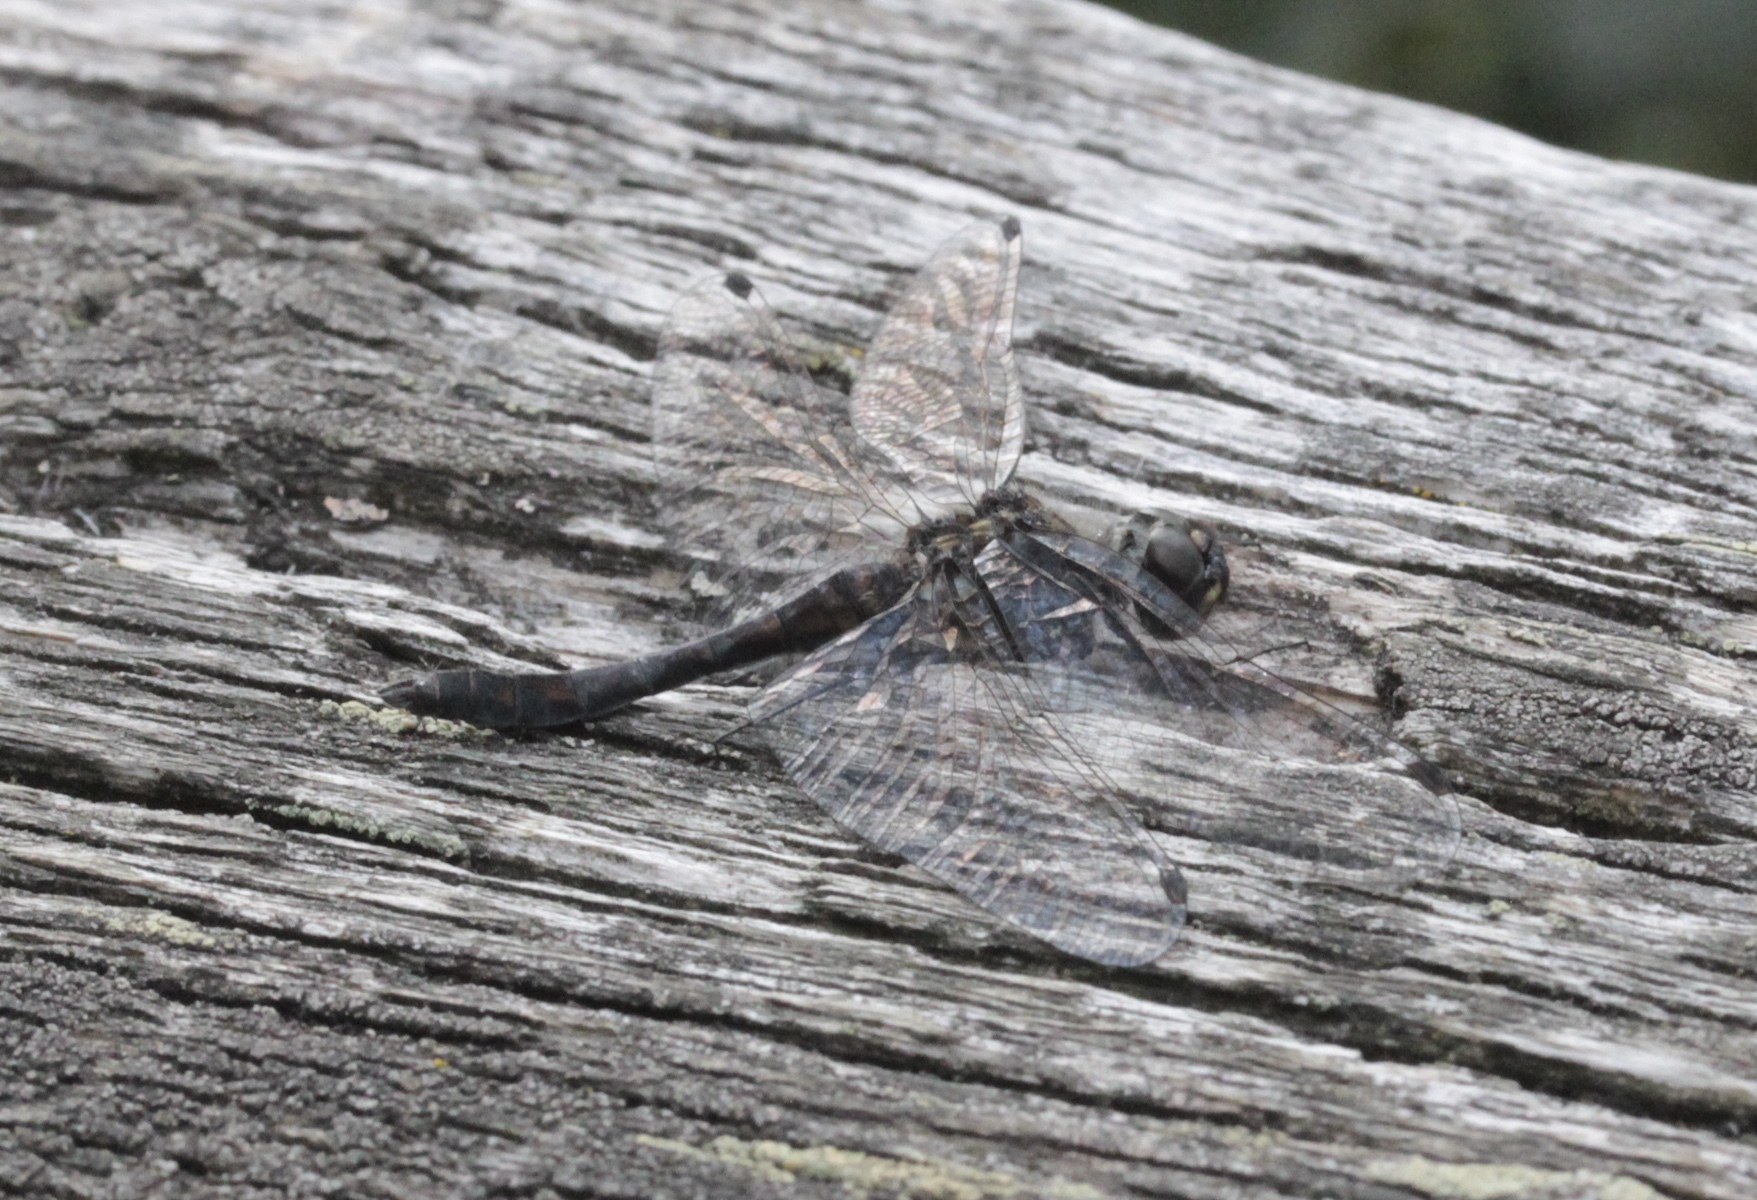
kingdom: Animalia
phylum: Arthropoda
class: Insecta
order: Odonata
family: Libellulidae
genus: Sympetrum
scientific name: Sympetrum danae
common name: Black darter
